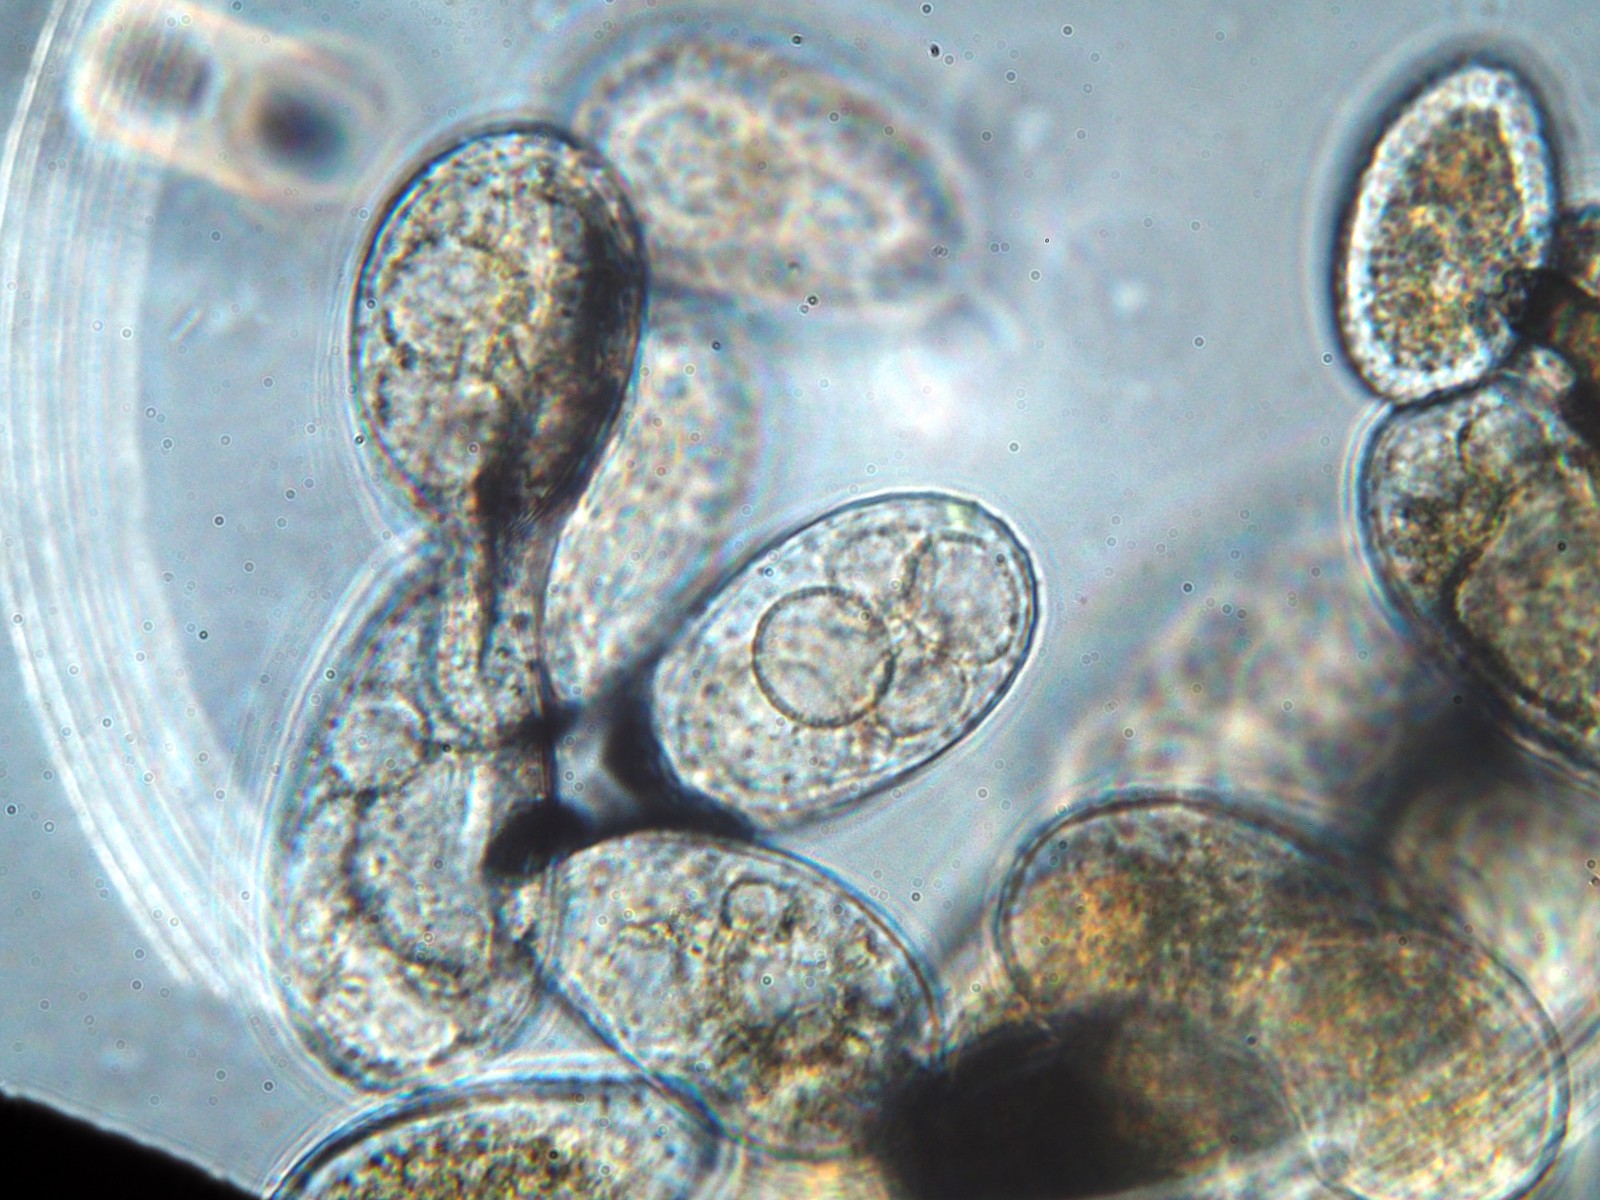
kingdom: Fungi
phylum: Basidiomycota
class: Pucciniomycetes
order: Pucciniales
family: Coleosporiaceae
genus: Coleosporium
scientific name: Coleosporium sonchi
